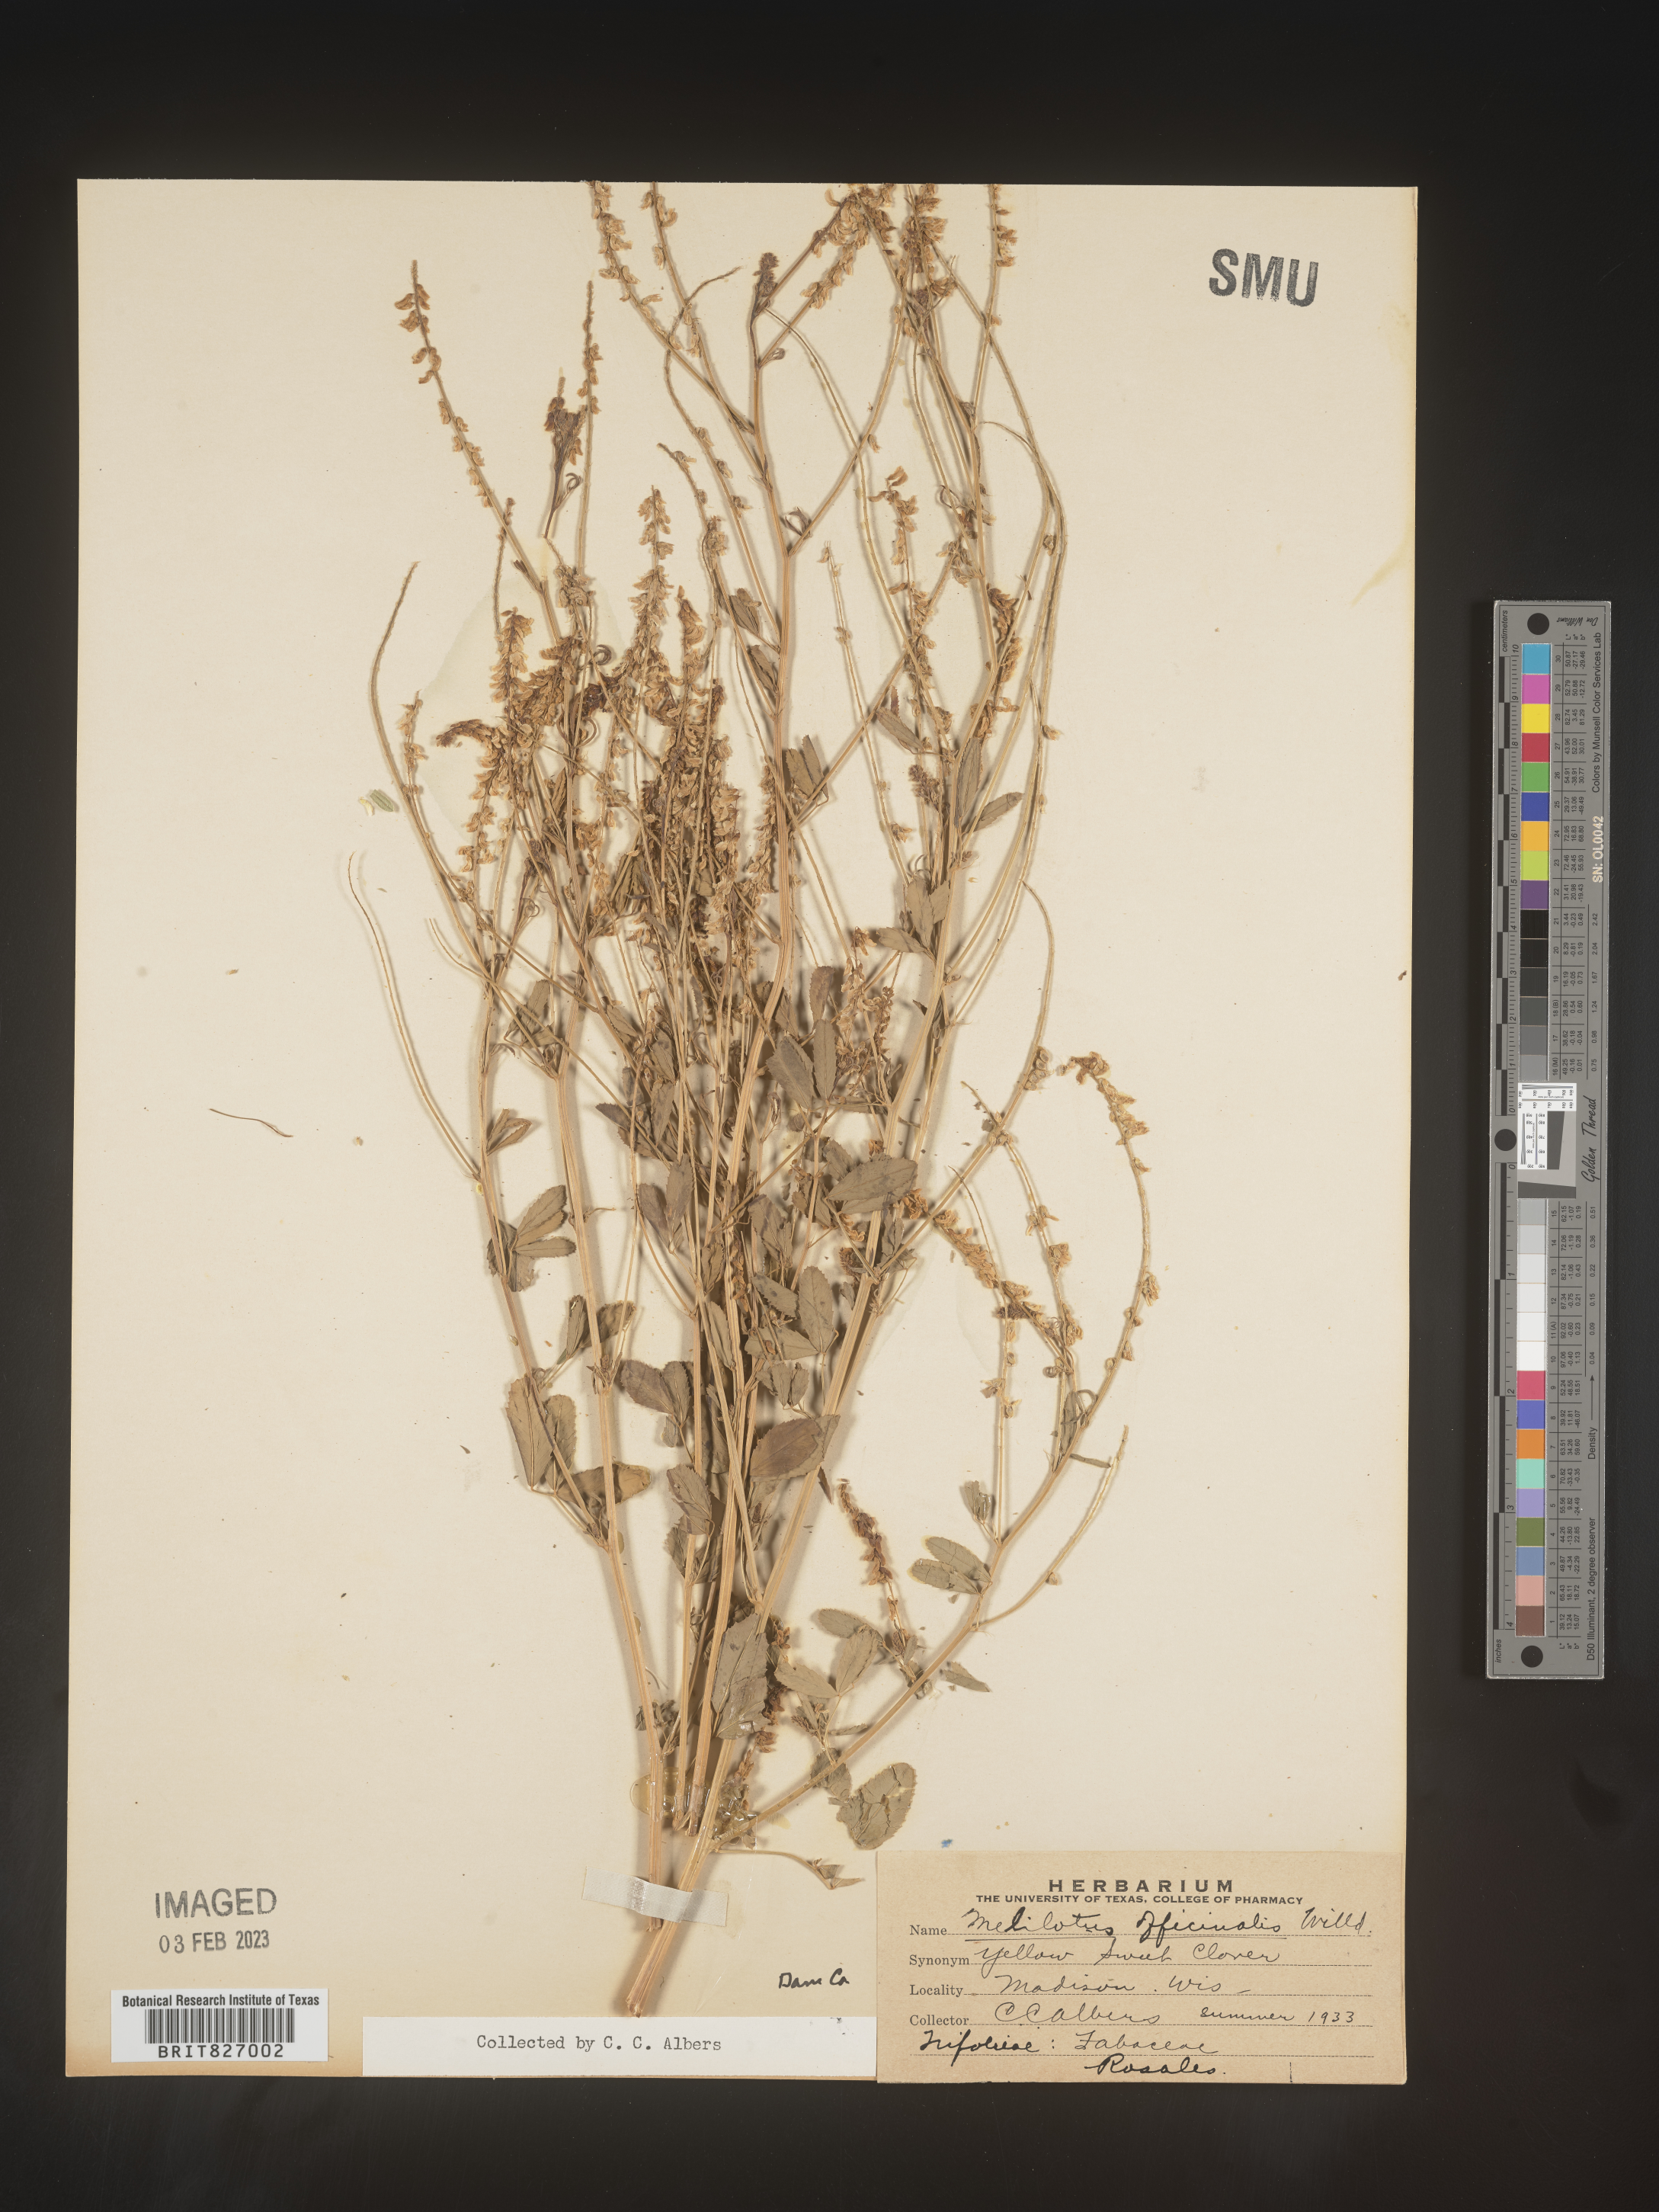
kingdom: Plantae
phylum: Tracheophyta
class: Magnoliopsida
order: Fabales
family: Fabaceae
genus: Melilotus
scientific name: Melilotus officinalis
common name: Sweetclover
